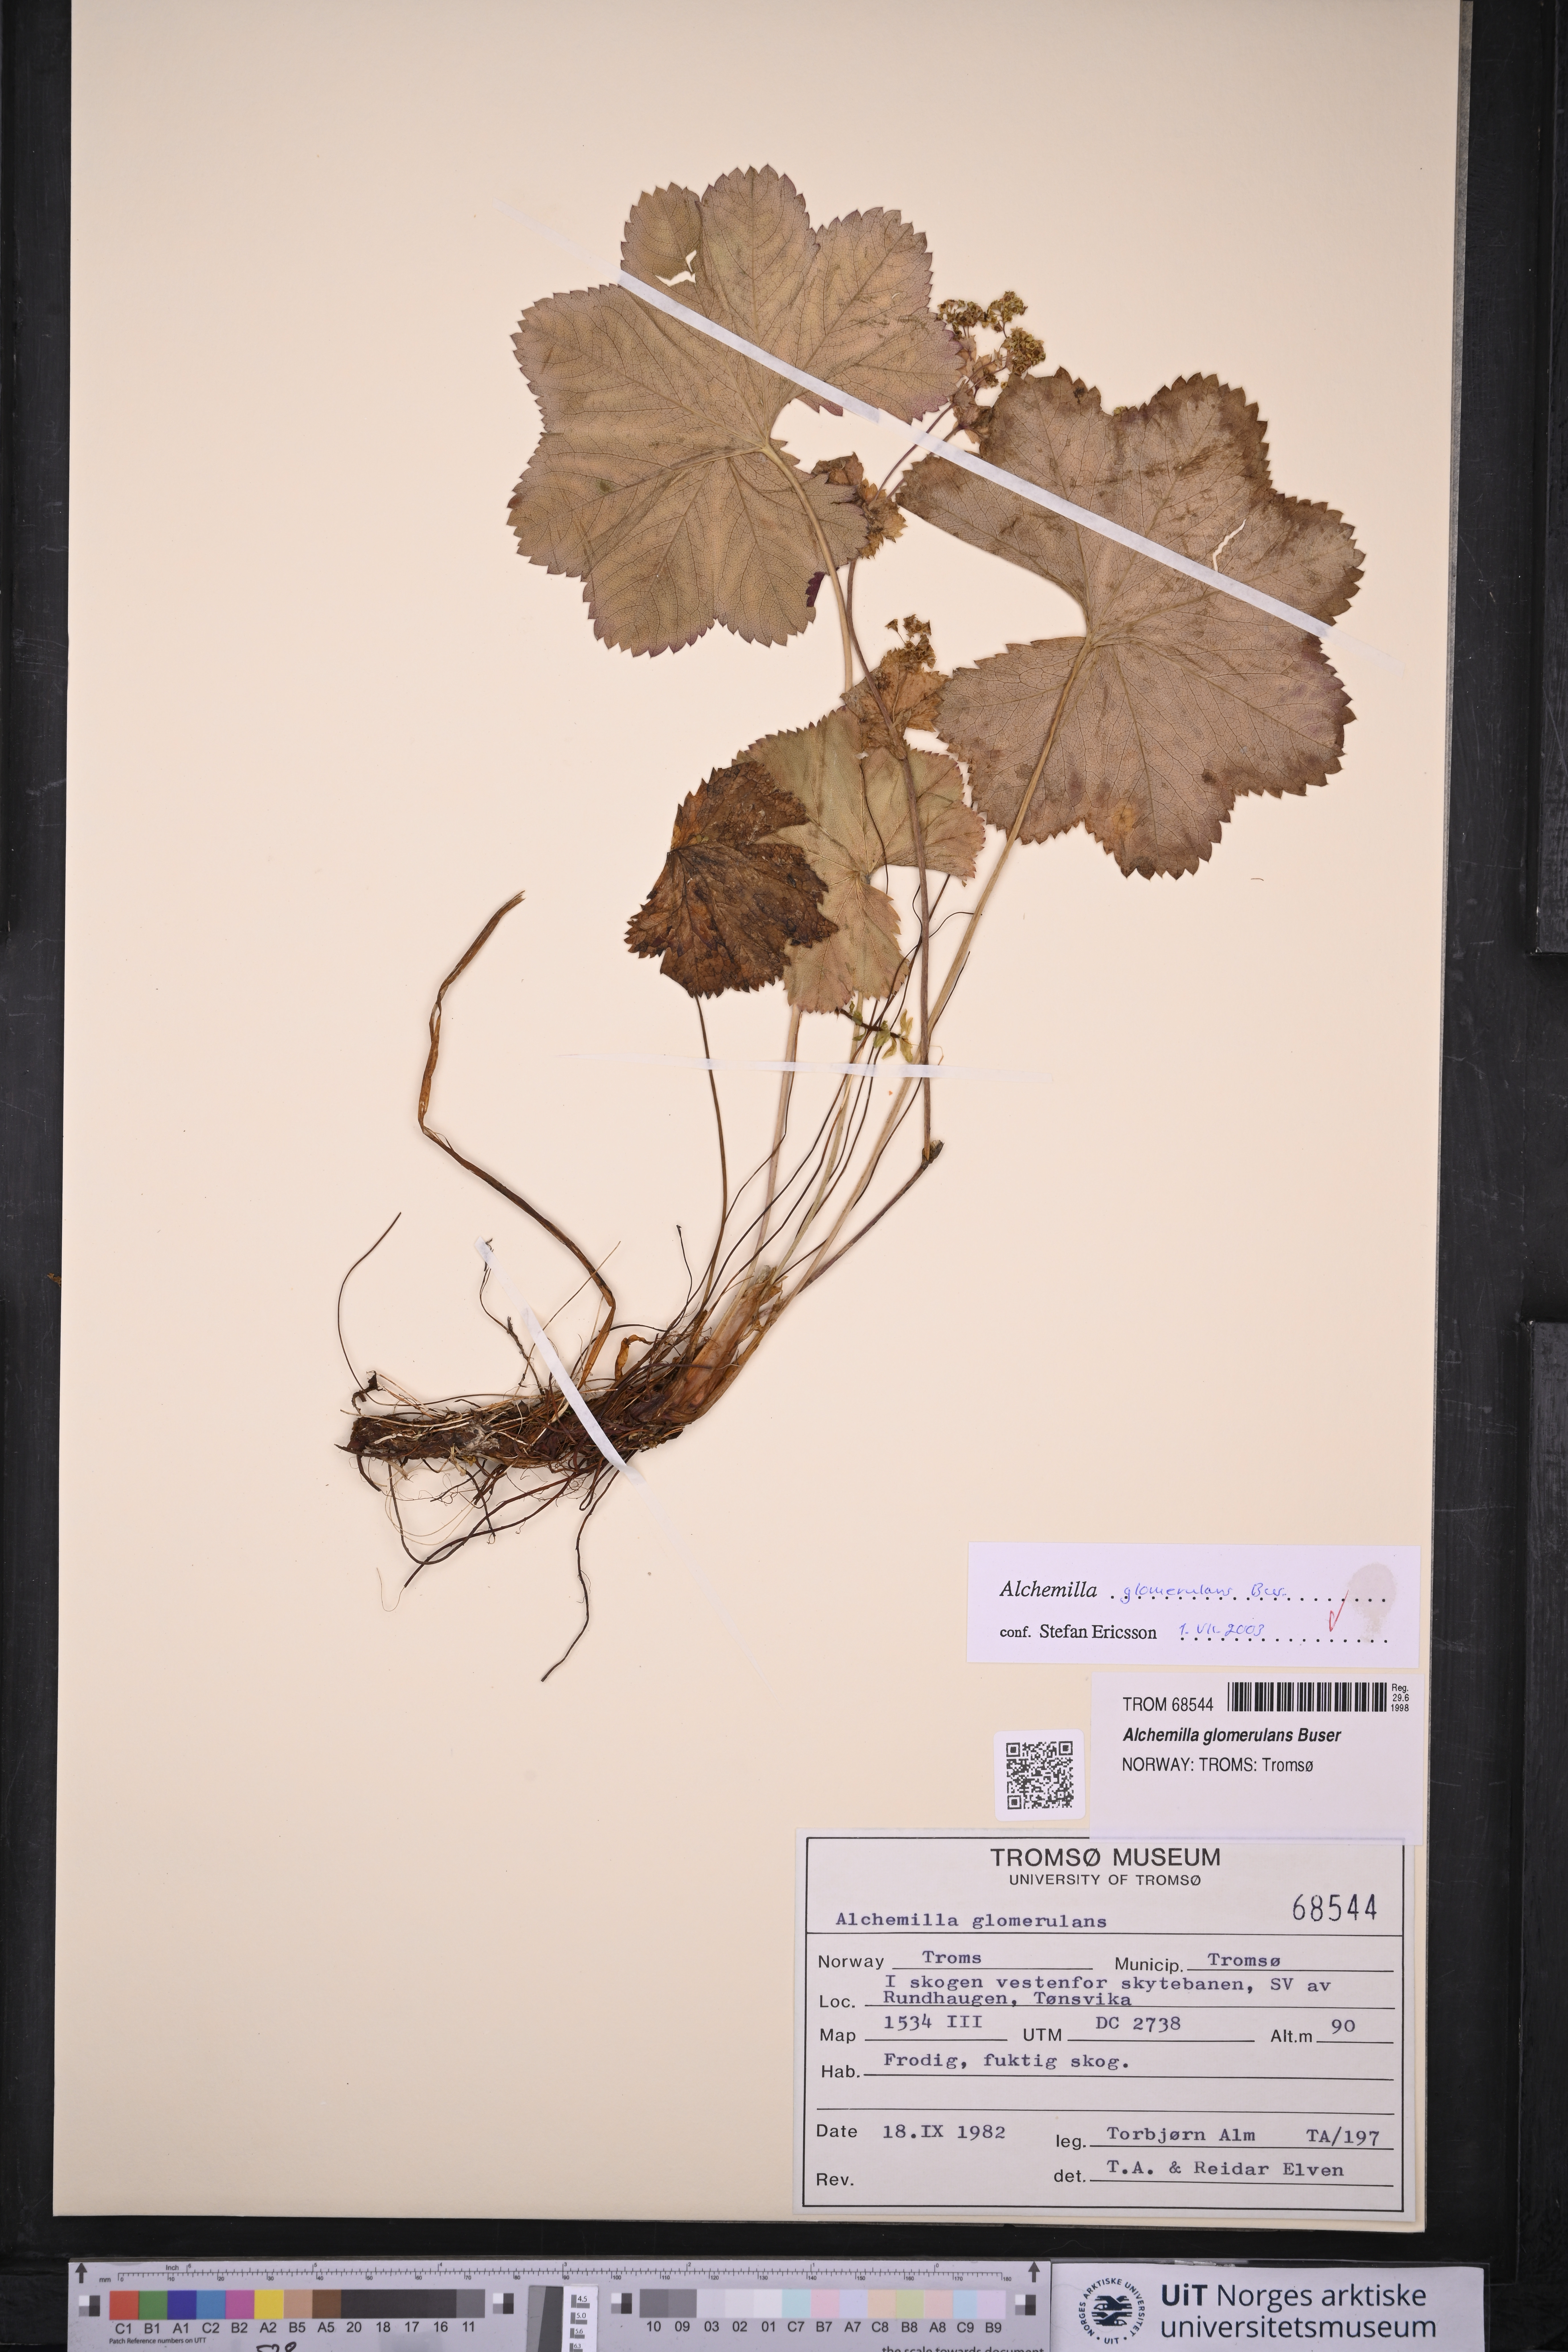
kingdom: Plantae
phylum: Tracheophyta
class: Magnoliopsida
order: Rosales
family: Rosaceae
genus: Alchemilla
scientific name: Alchemilla glomerulans
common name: Clustered lady's mantle
